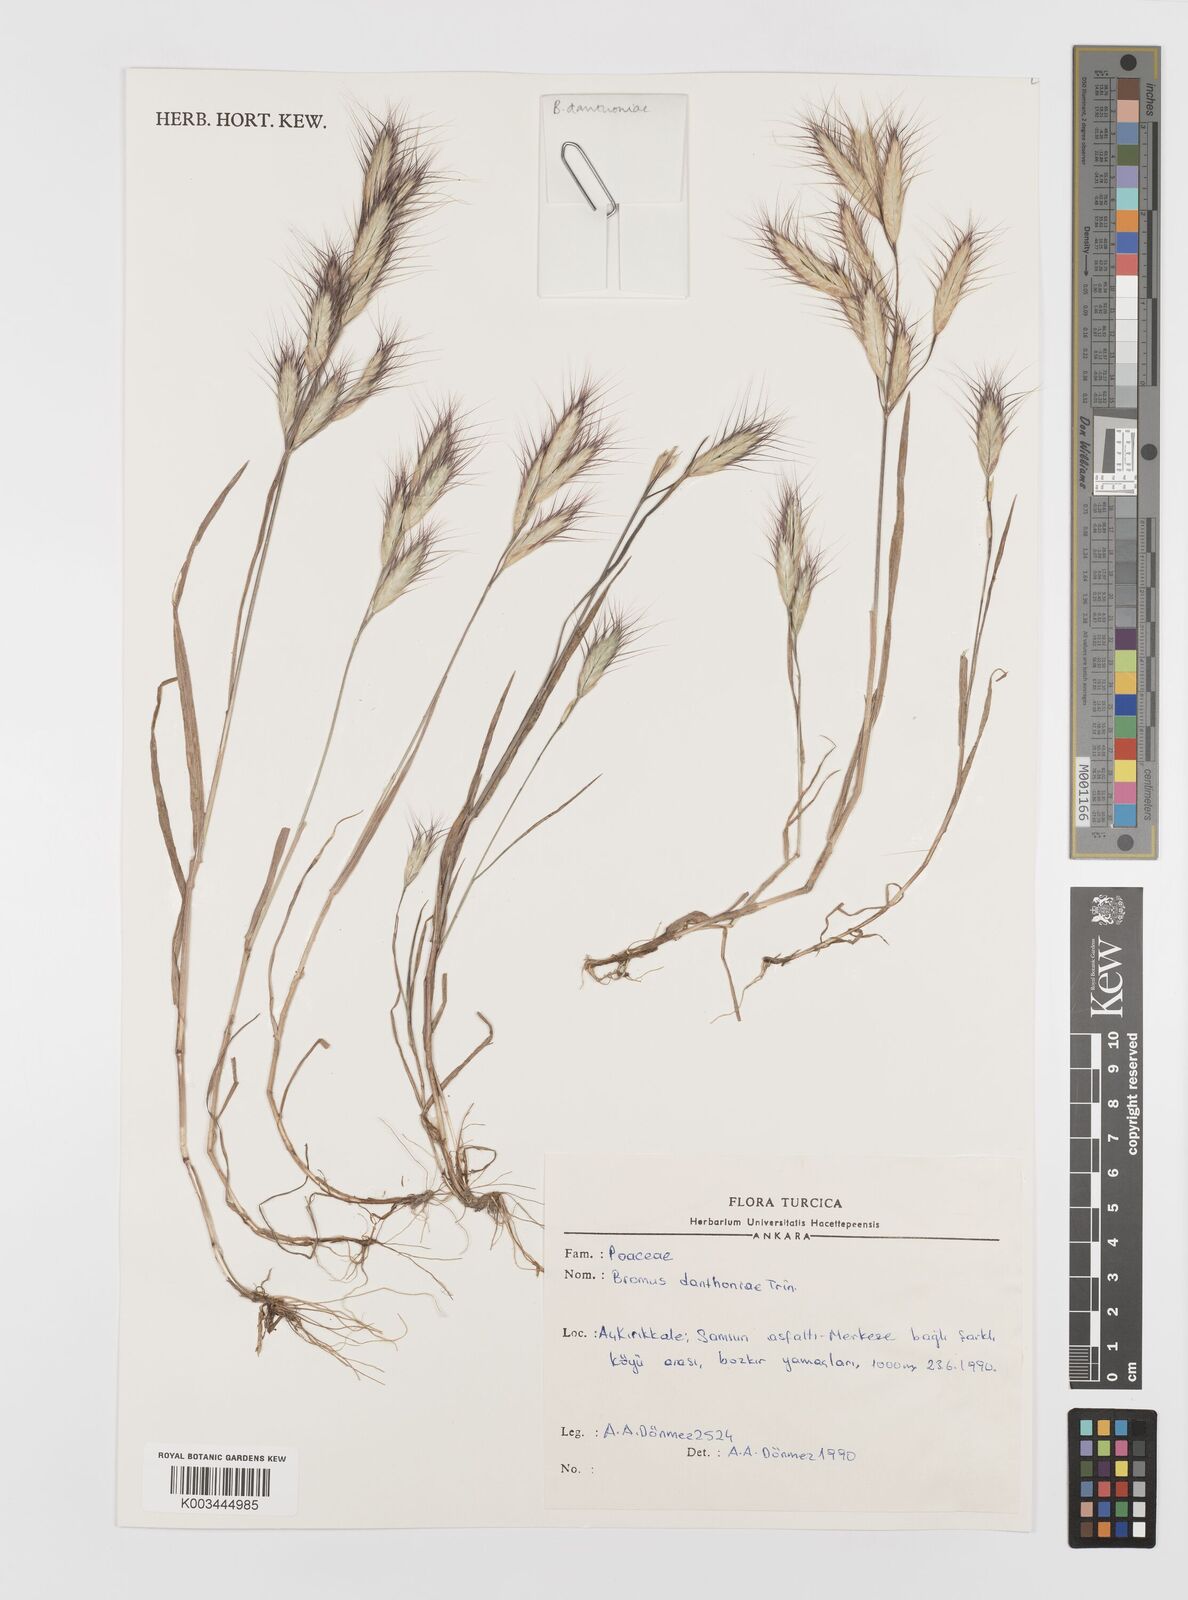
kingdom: Plantae
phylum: Tracheophyta
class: Liliopsida
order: Poales
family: Poaceae
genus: Bromus
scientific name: Bromus danthoniae
